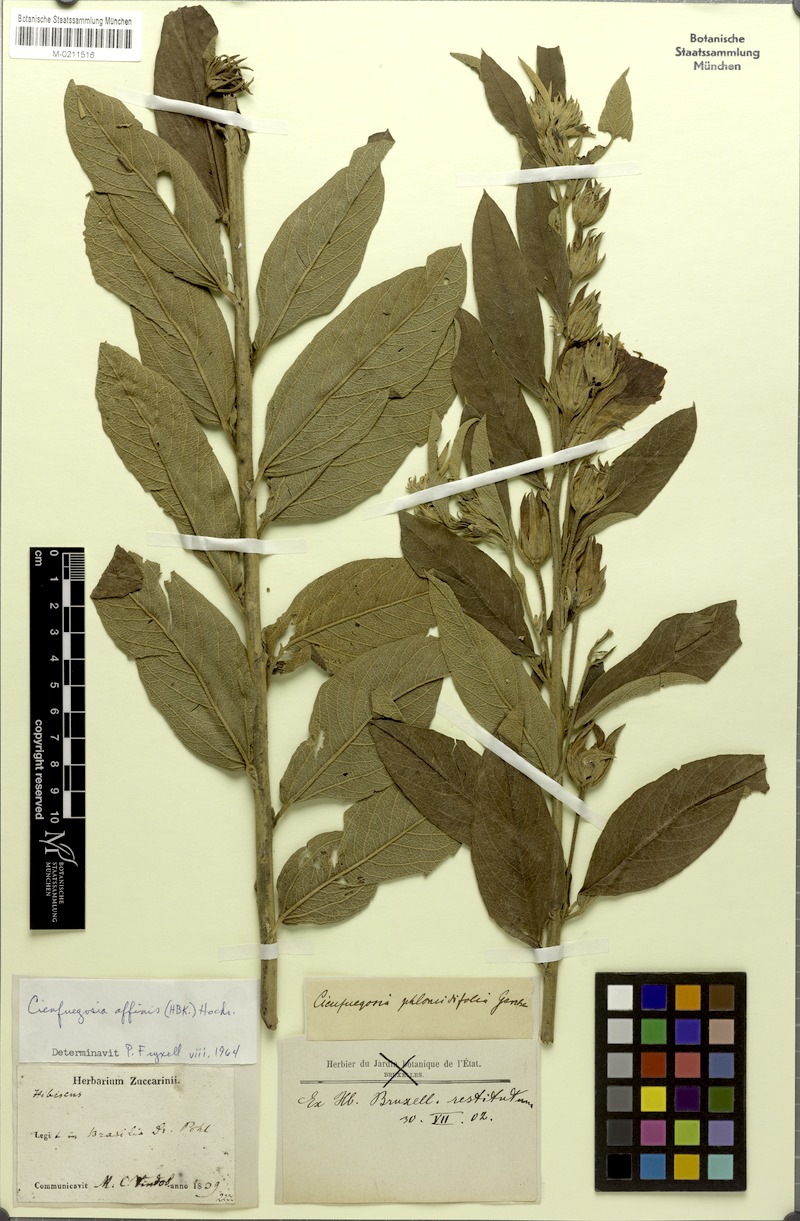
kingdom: Plantae
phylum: Tracheophyta
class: Magnoliopsida
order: Malvales
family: Malvaceae
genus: Cienfuegosia
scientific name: Cienfuegosia affinis
